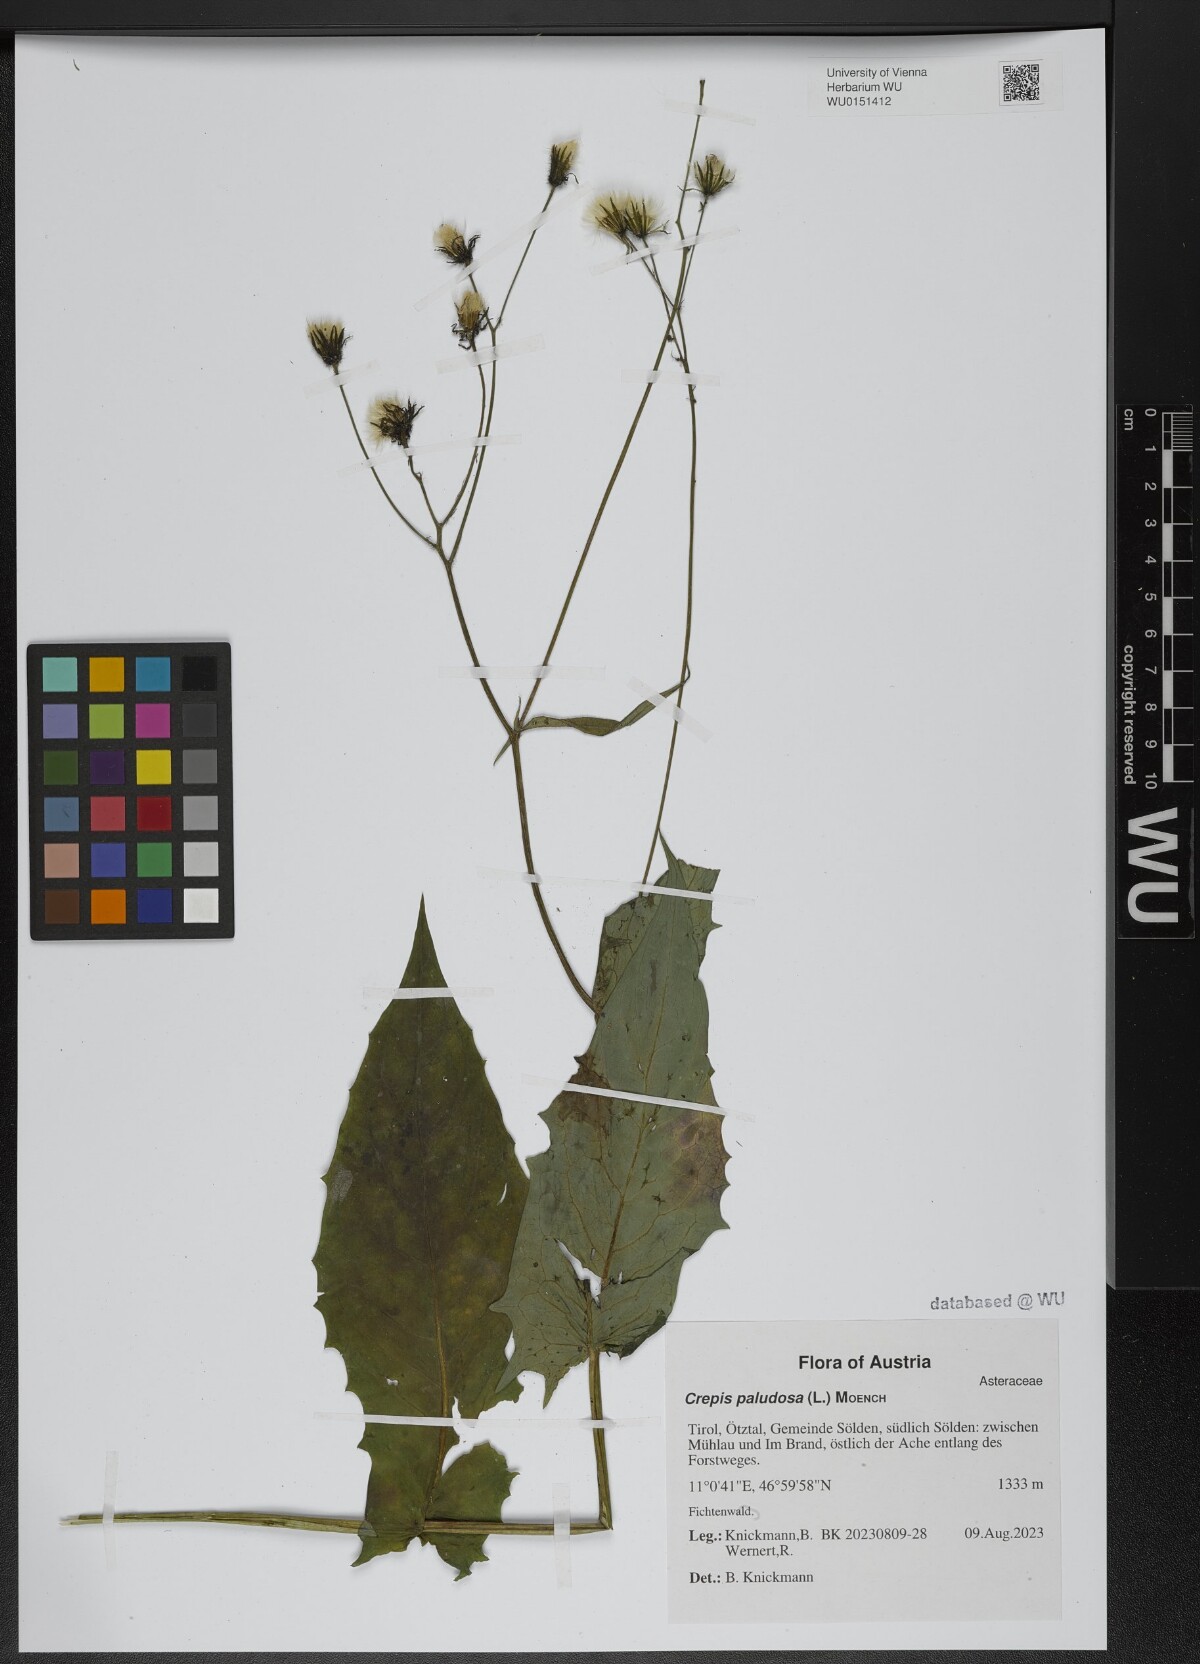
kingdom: Plantae
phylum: Tracheophyta
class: Magnoliopsida
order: Asterales
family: Asteraceae
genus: Crepis
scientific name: Crepis paludosa
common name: Marsh hawk's-beard
